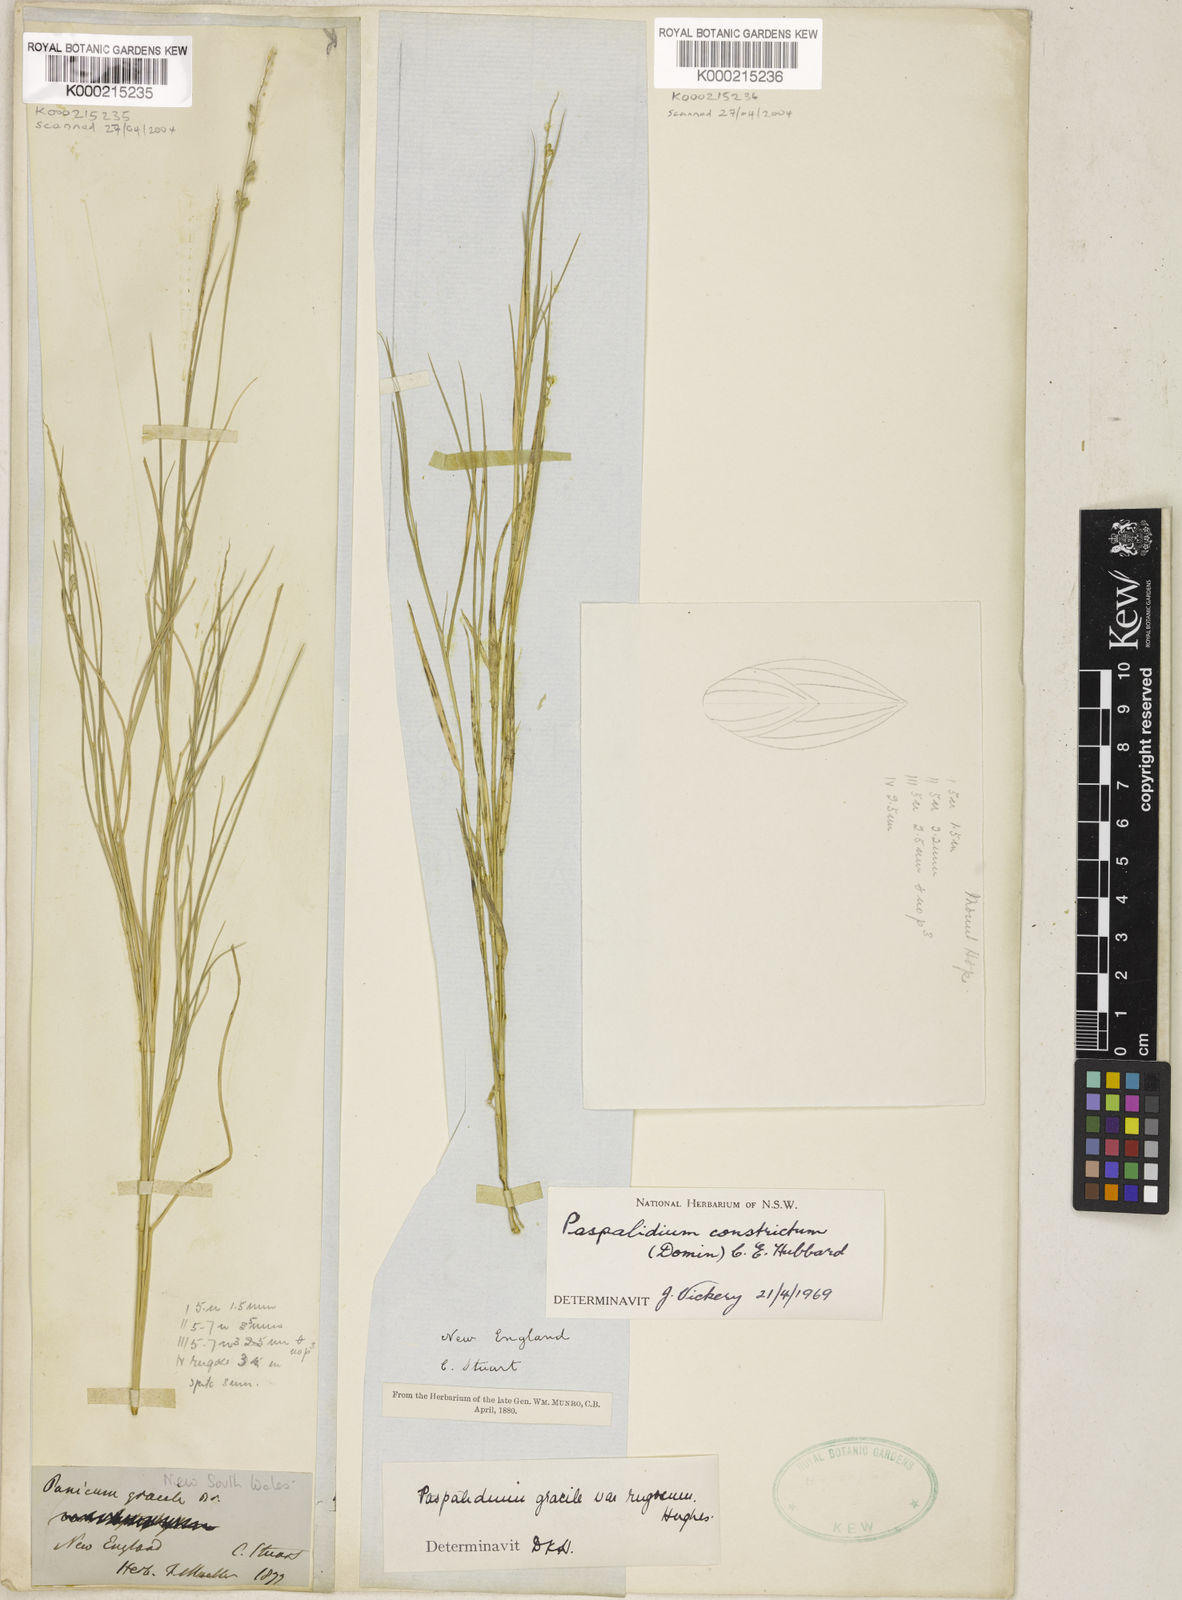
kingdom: Plantae
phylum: Tracheophyta
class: Liliopsida
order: Poales
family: Poaceae
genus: Setaria
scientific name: Setaria constricta
